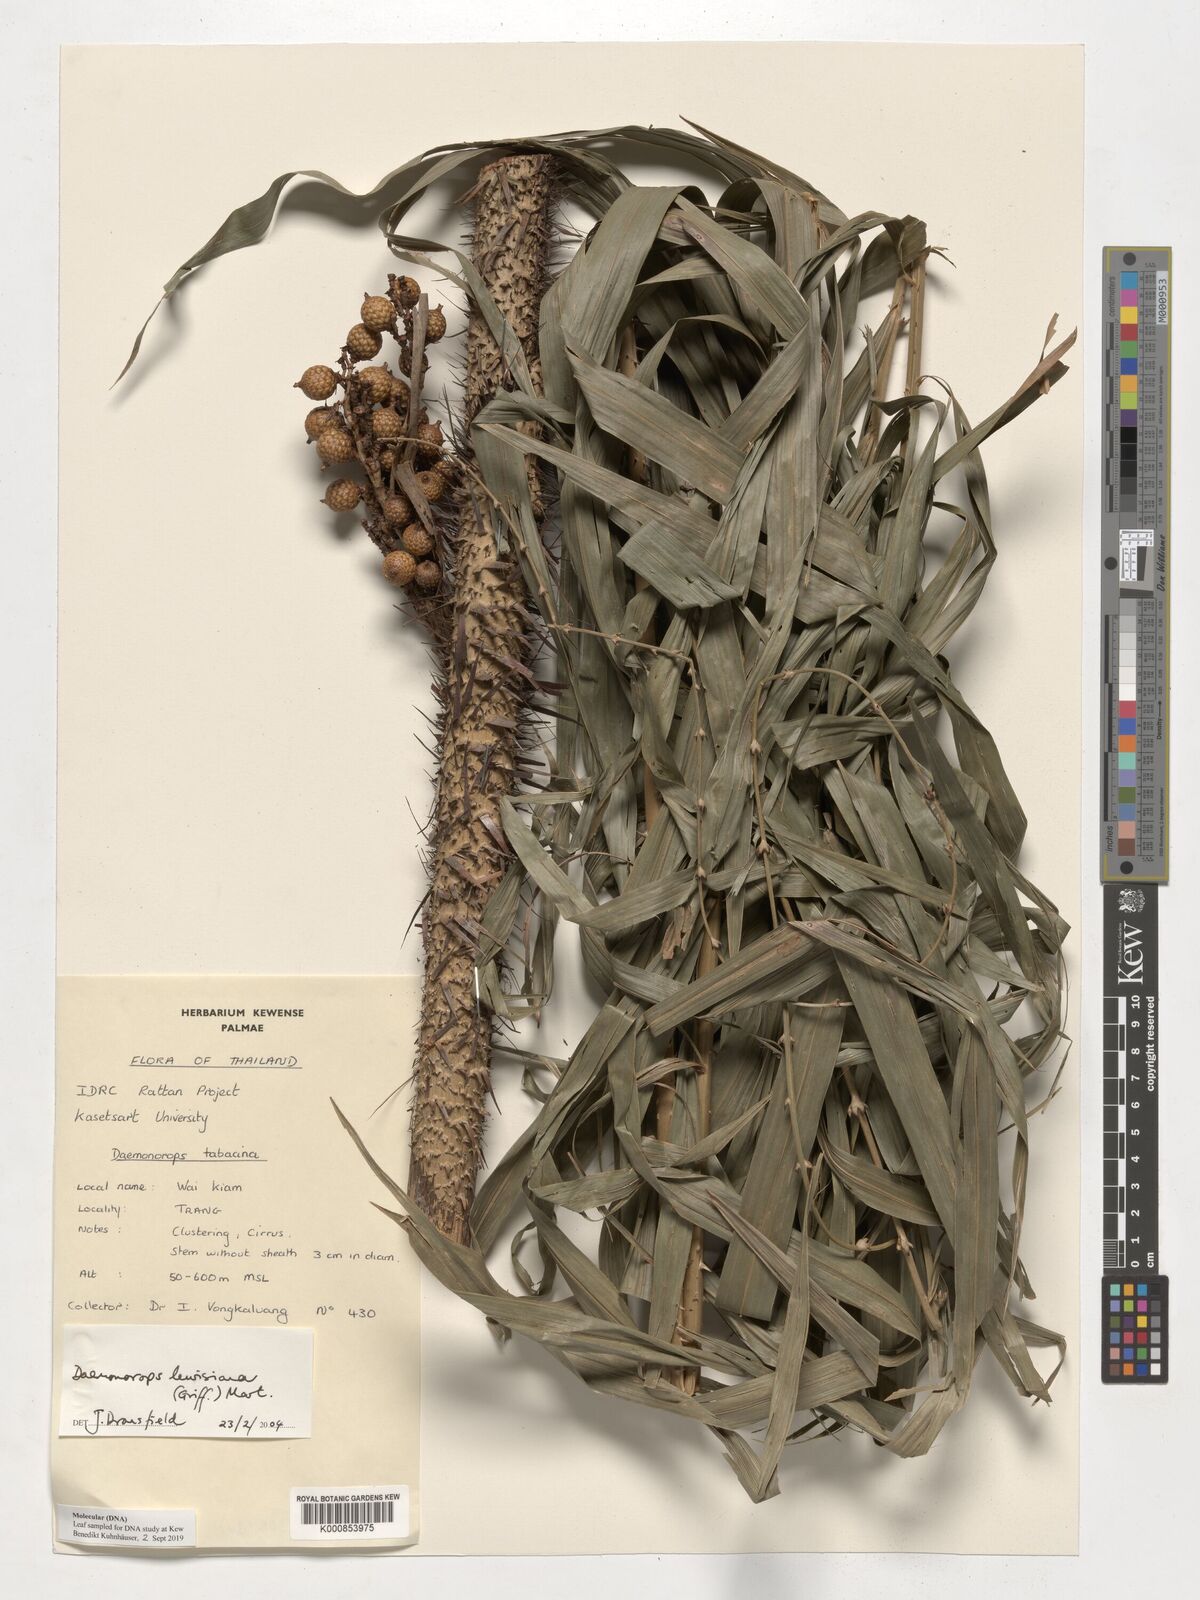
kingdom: Plantae
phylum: Tracheophyta
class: Liliopsida
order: Arecales
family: Arecaceae
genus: Calamus
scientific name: Calamus melanochaetes
